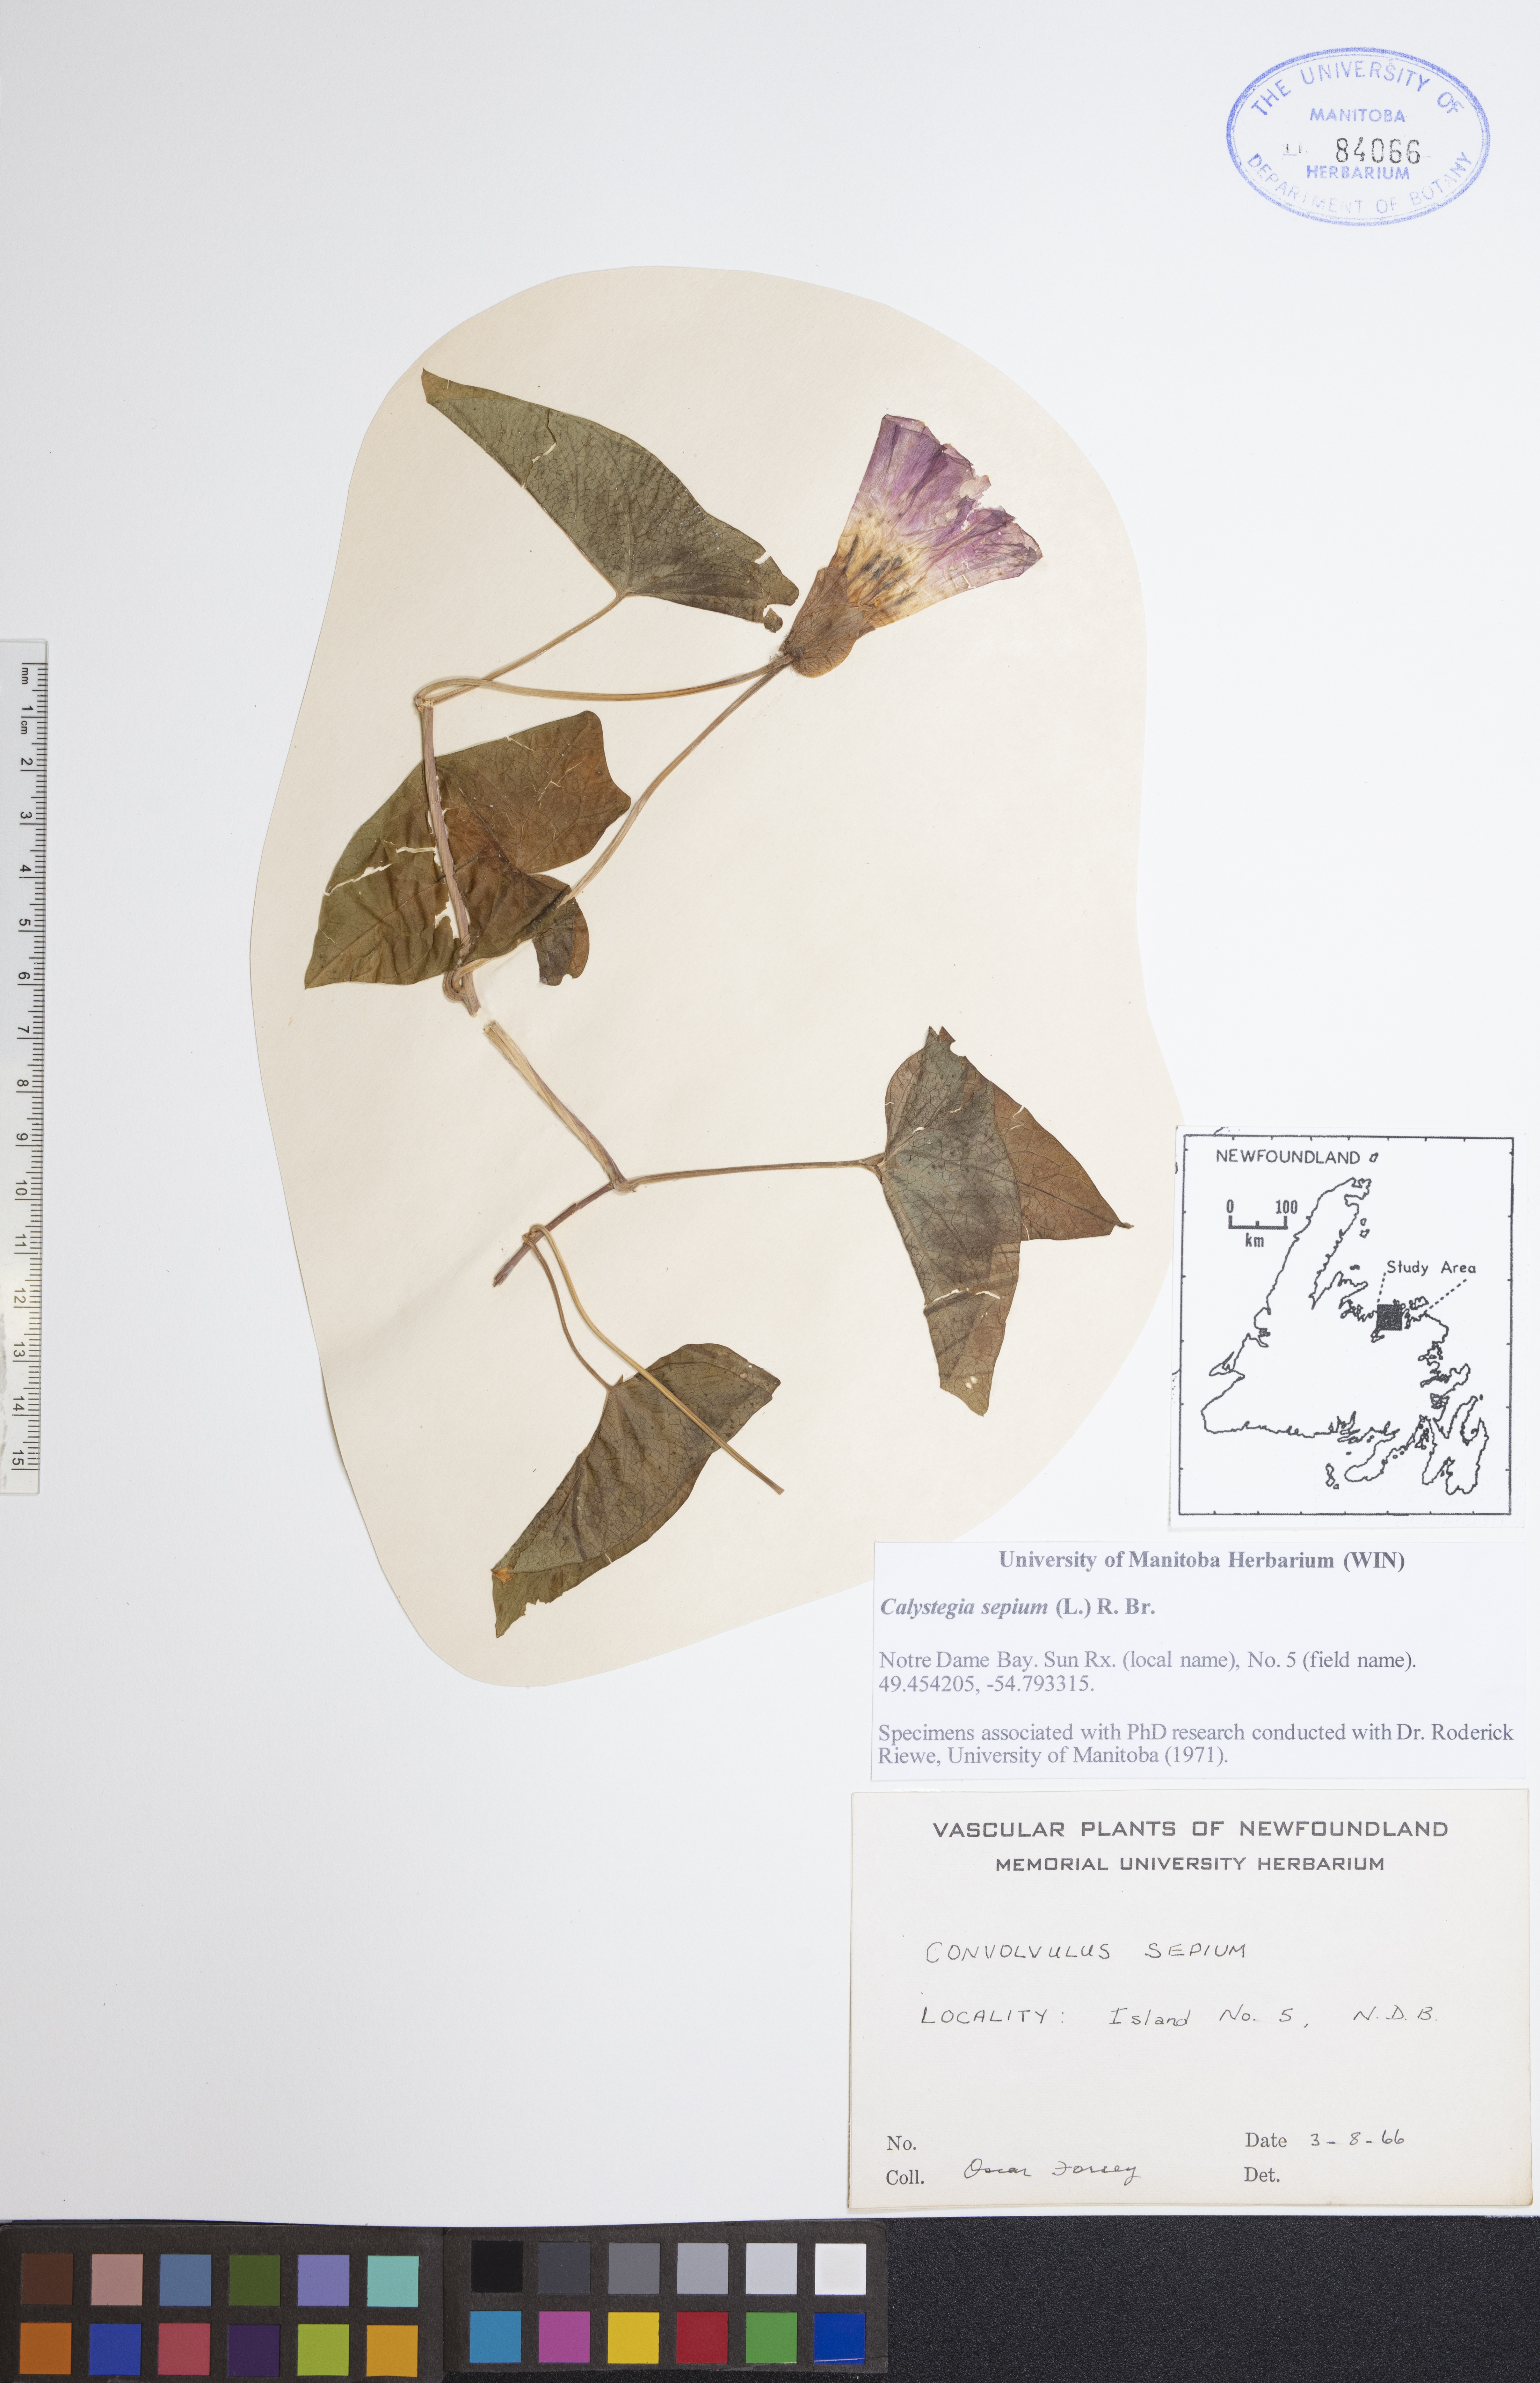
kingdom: Plantae
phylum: Tracheophyta
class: Magnoliopsida
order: Solanales
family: Convolvulaceae
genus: Calystegia
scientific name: Calystegia sepium
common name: Hedge bindweed
